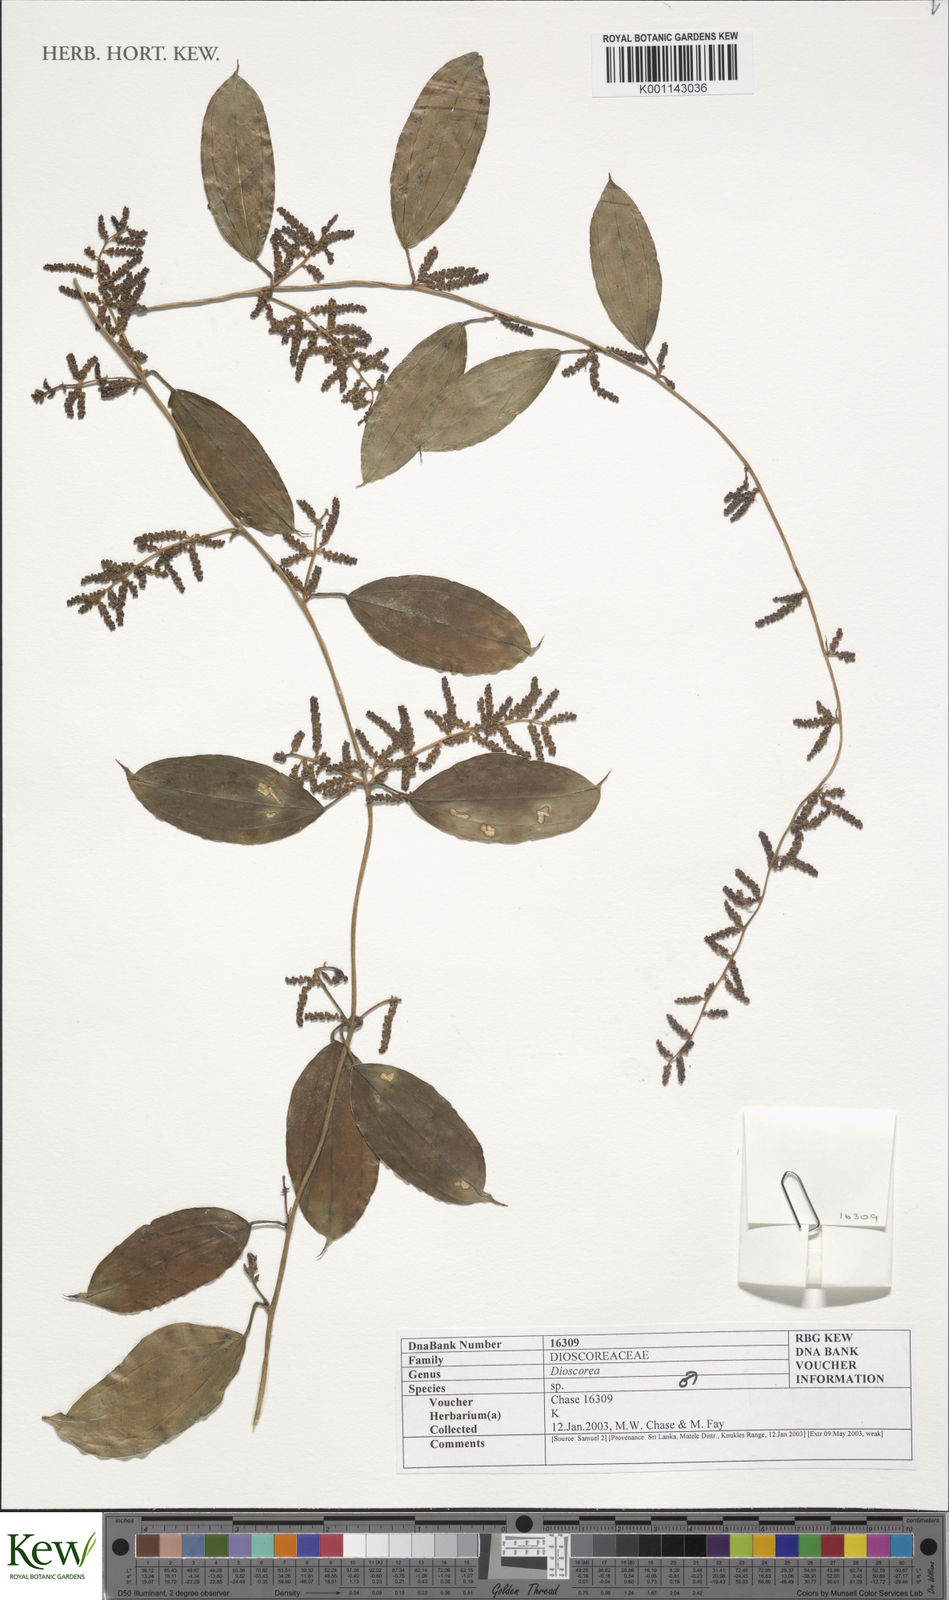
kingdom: Plantae
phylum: Tracheophyta
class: Liliopsida
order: Dioscoreales
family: Dioscoreaceae
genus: Dioscorea
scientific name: Dioscorea
